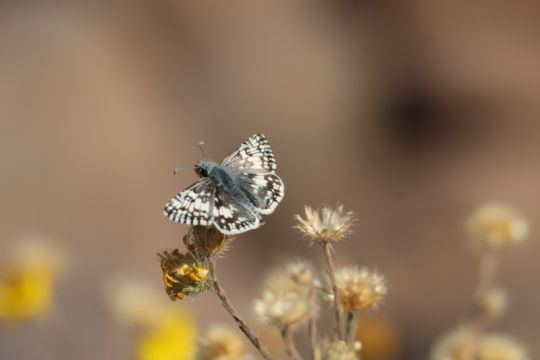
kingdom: Animalia
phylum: Arthropoda
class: Insecta
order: Lepidoptera
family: Hesperiidae
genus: Pyrgus
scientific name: Pyrgus communis
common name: Common Checkered-Skipper
